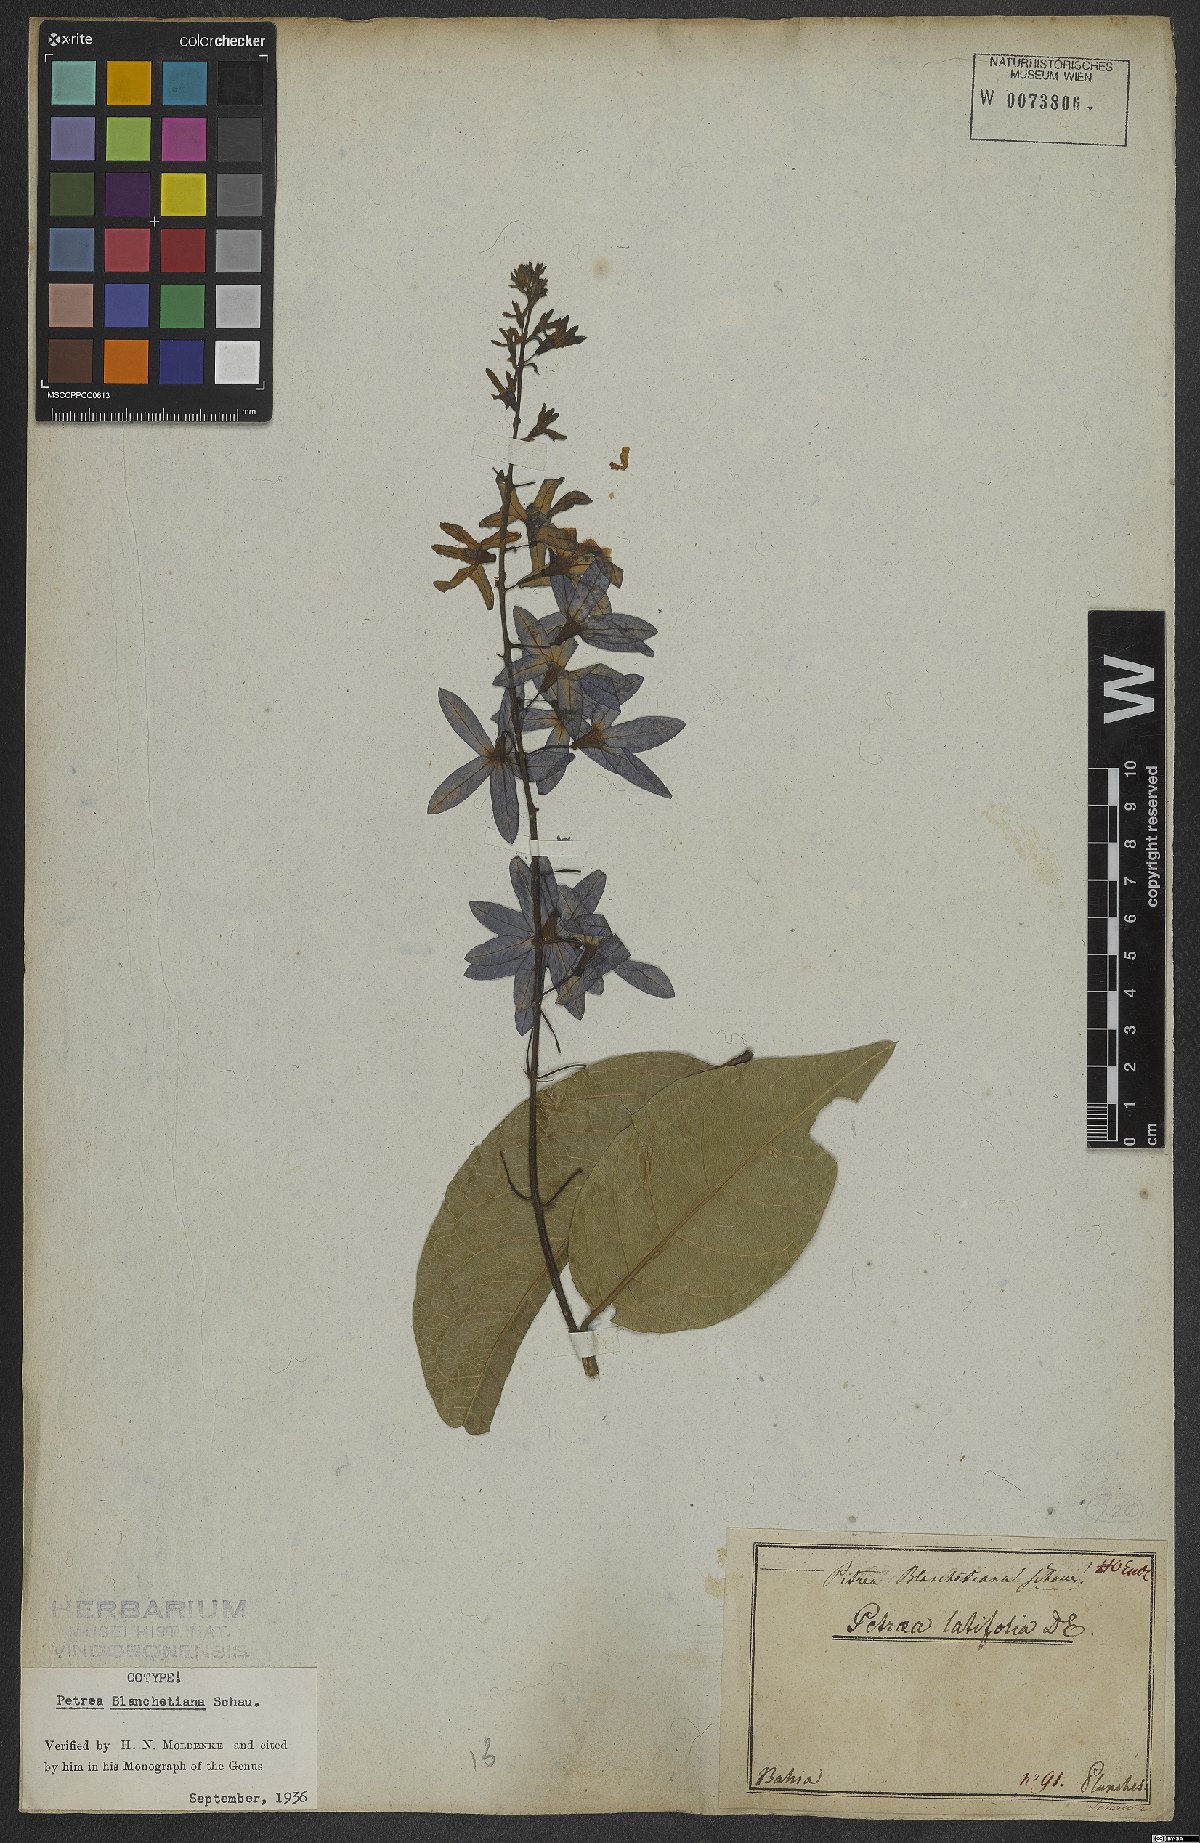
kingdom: Plantae
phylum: Tracheophyta
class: Magnoliopsida
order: Lamiales
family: Verbenaceae
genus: Petrea
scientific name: Petrea blanchetiana
